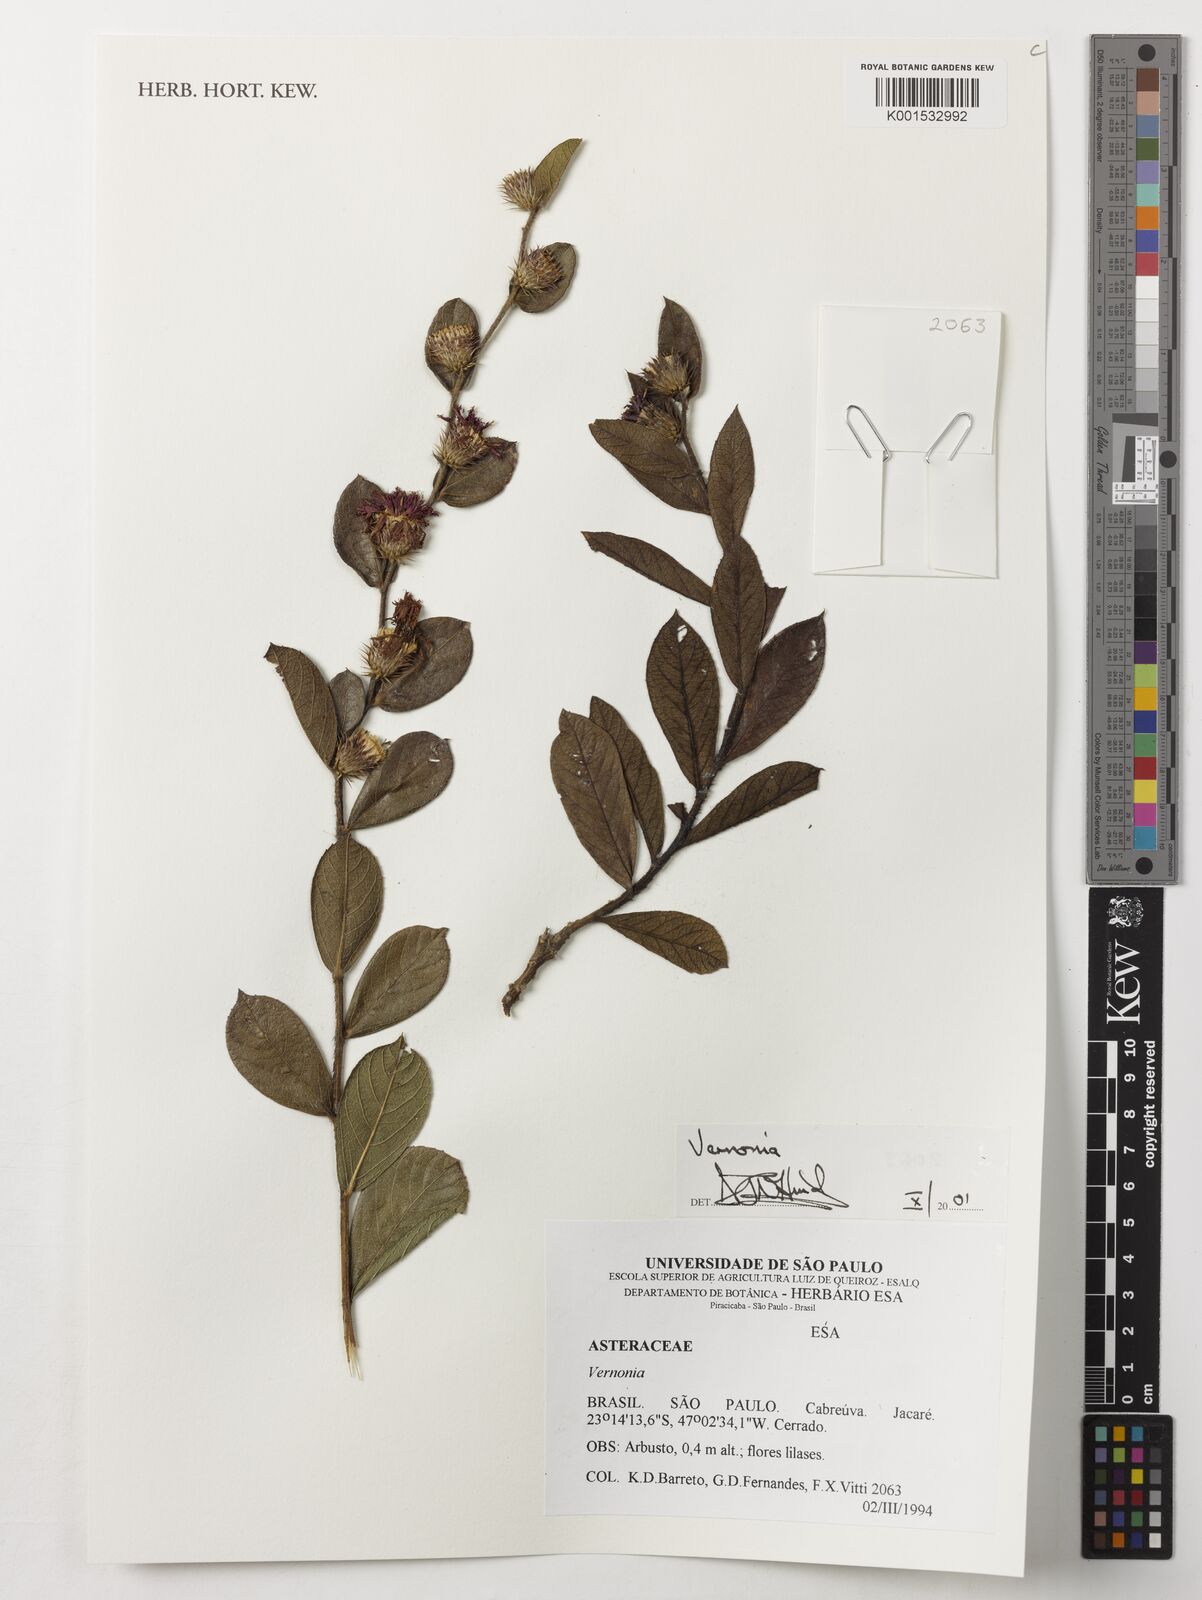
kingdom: Plantae
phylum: Tracheophyta
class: Magnoliopsida
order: Asterales
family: Asteraceae
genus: Vernonia
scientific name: Vernonia
